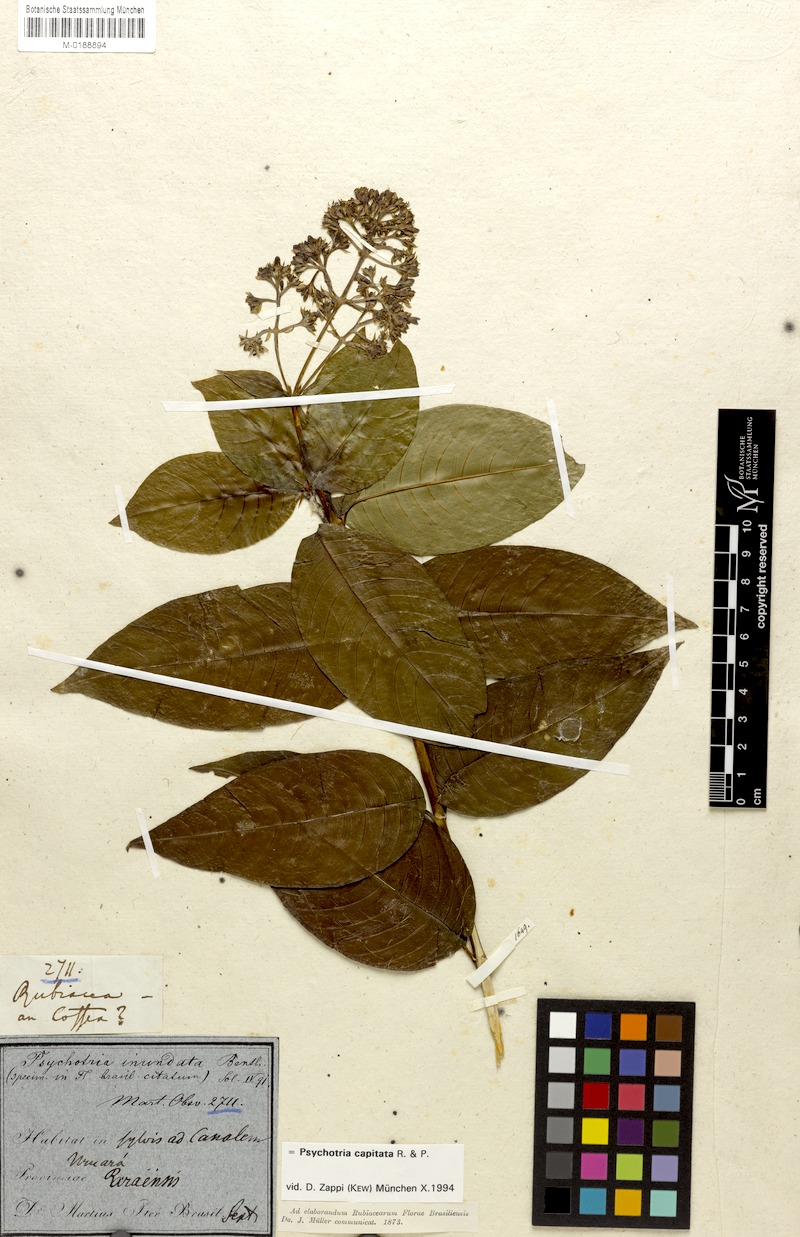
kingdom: Plantae
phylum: Tracheophyta
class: Magnoliopsida
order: Gentianales
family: Rubiaceae
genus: Palicourea
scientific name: Palicourea violacea
